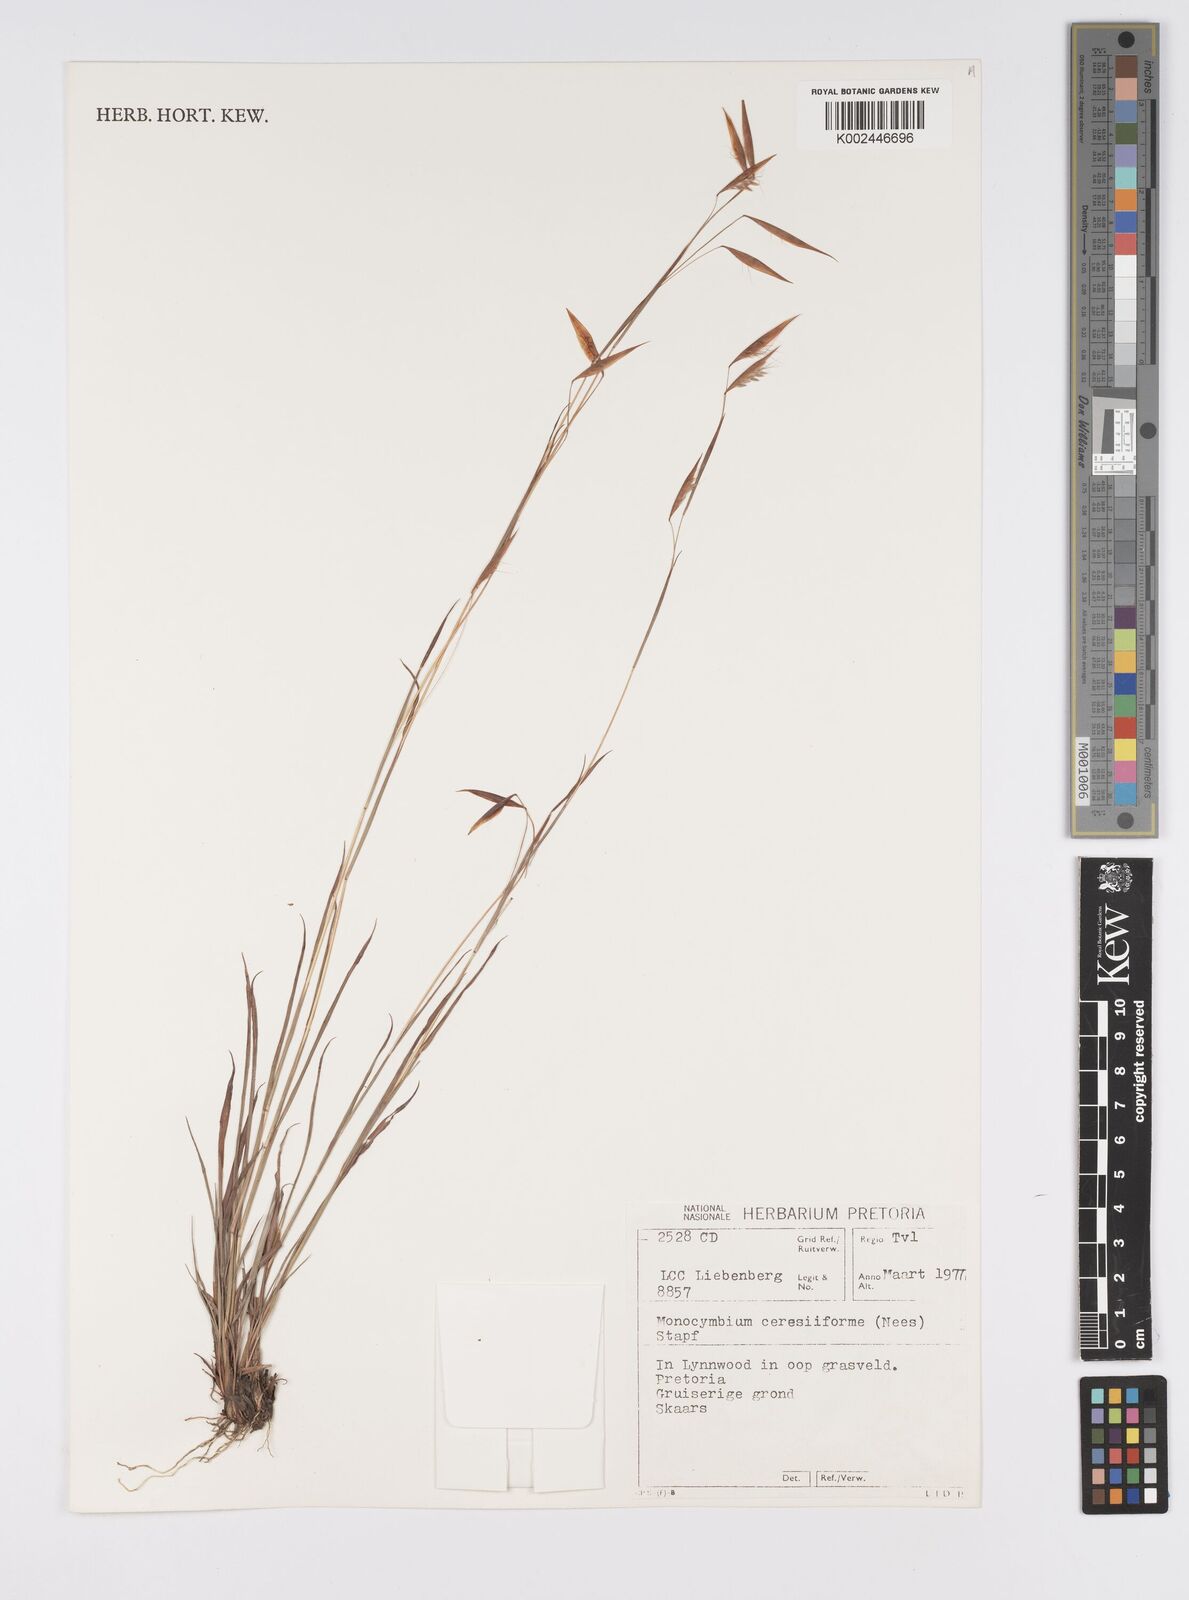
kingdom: Plantae
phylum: Tracheophyta
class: Liliopsida
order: Poales
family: Poaceae
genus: Monocymbium
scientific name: Monocymbium ceresiiforme
